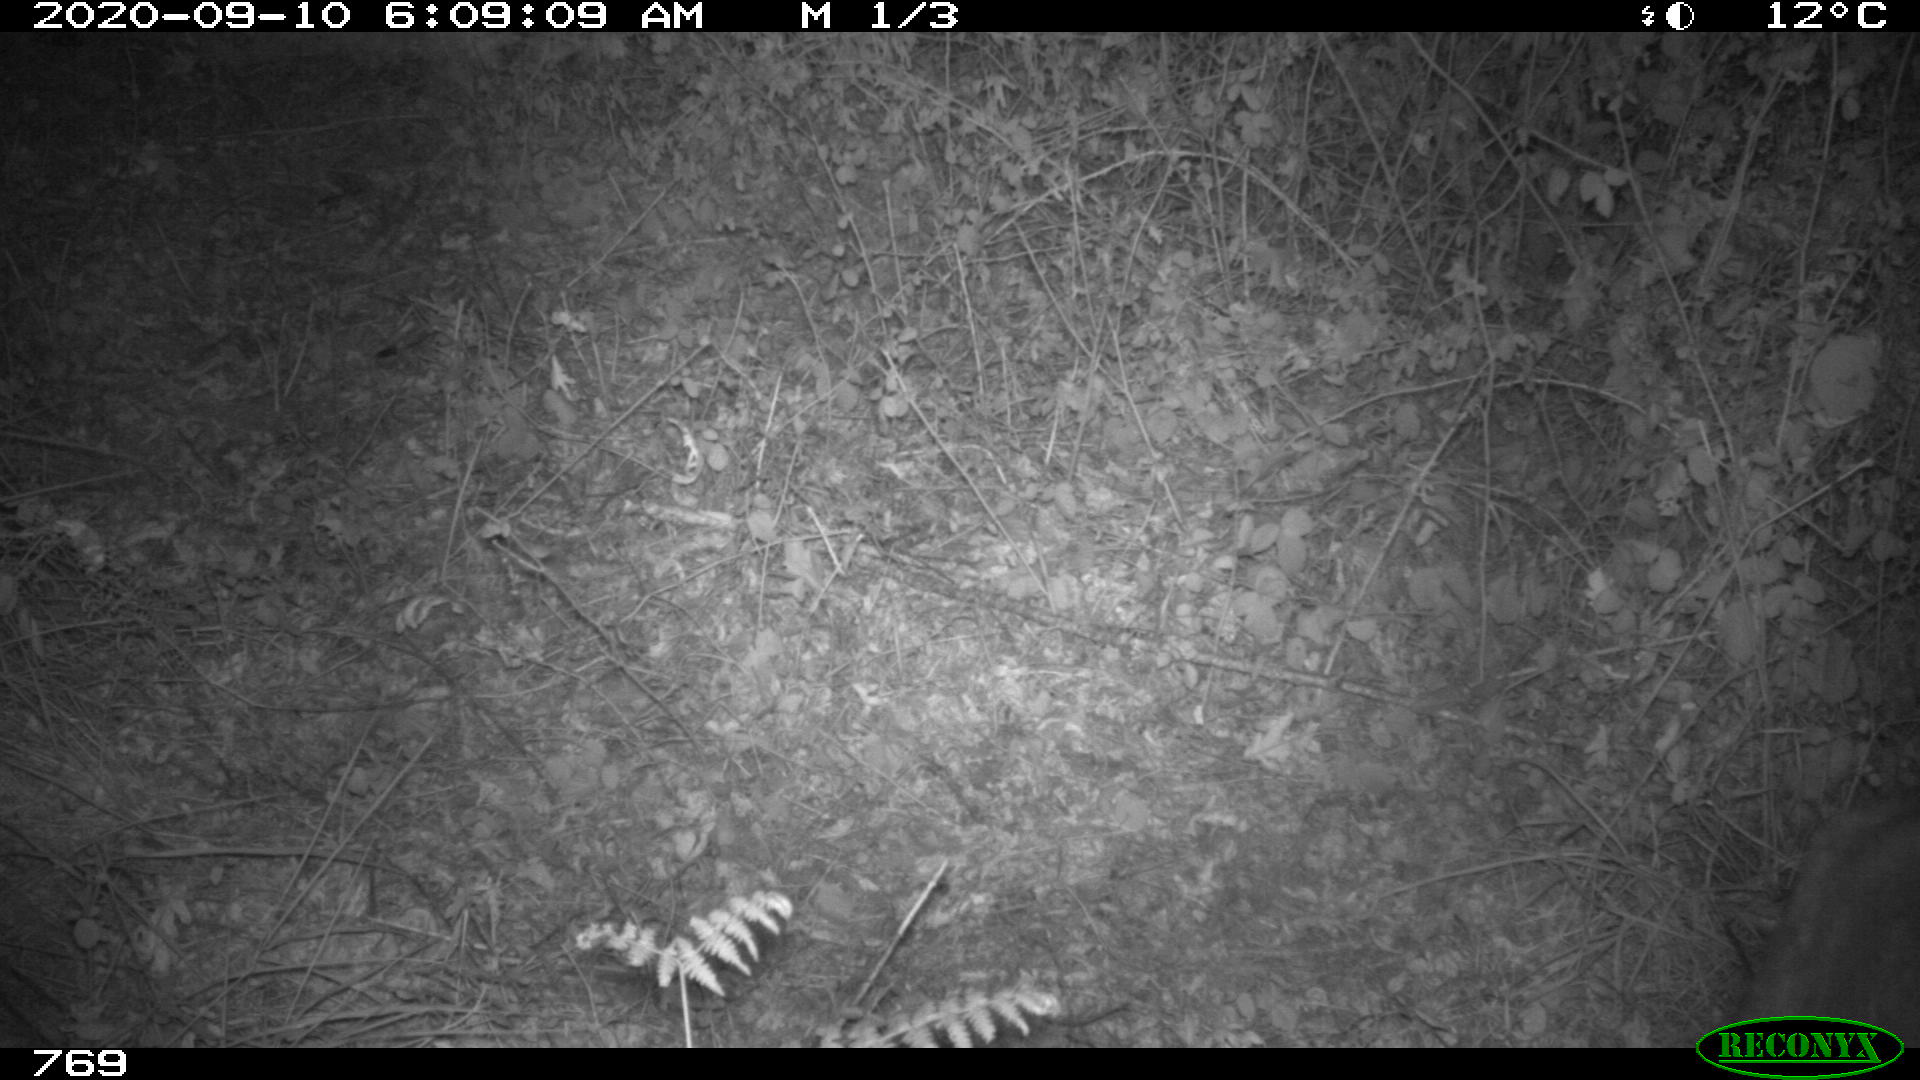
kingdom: Animalia
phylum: Chordata
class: Mammalia
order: Artiodactyla
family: Cervidae
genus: Capreolus
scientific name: Capreolus capreolus
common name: Western roe deer
